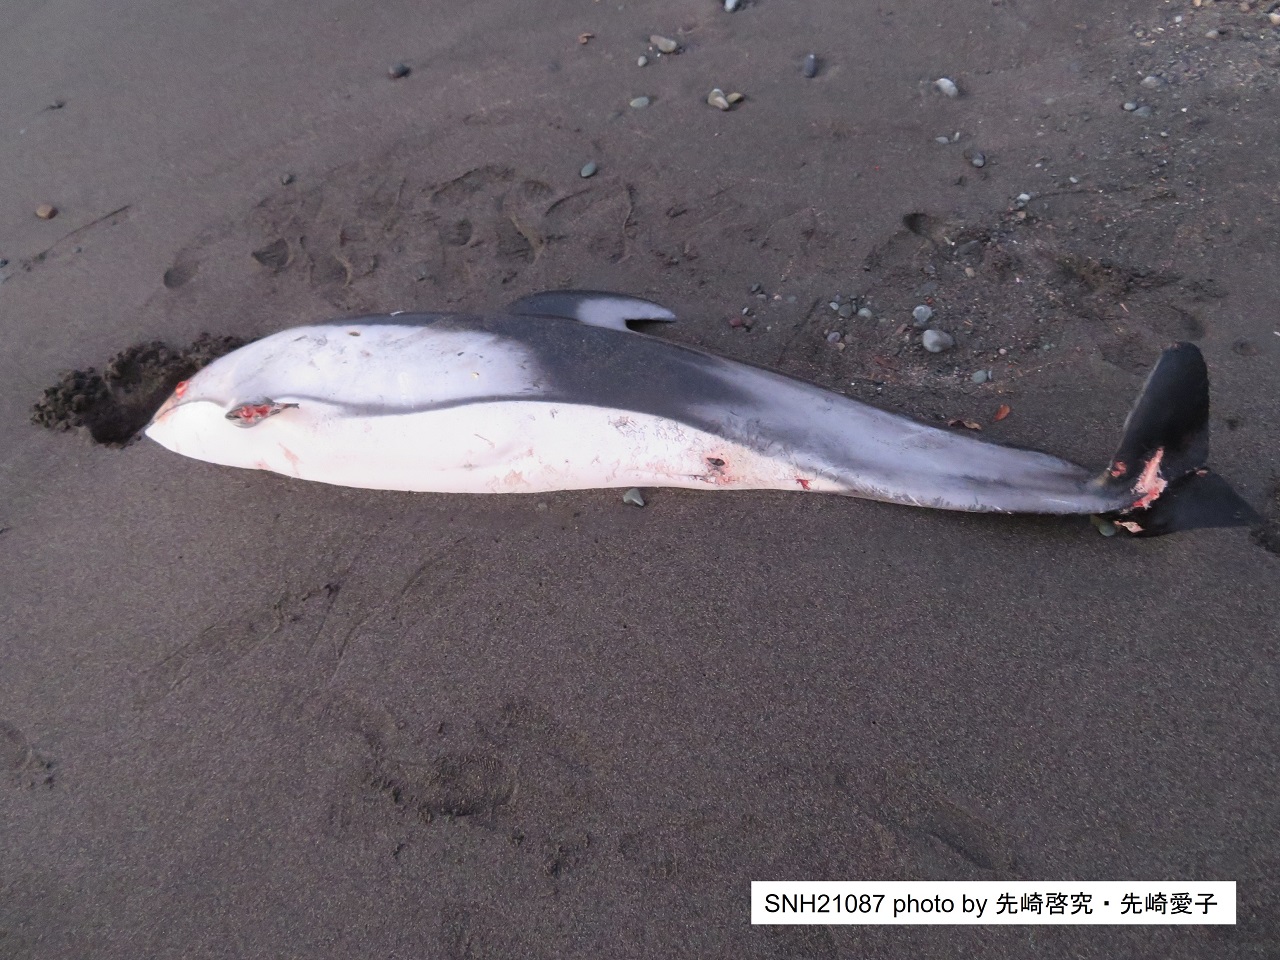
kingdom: Animalia
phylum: Chordata
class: Mammalia
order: Cetacea
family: Delphinidae
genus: Lagenorhynchus
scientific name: Lagenorhynchus obliquidens
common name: Pacific white-sided dolphin
